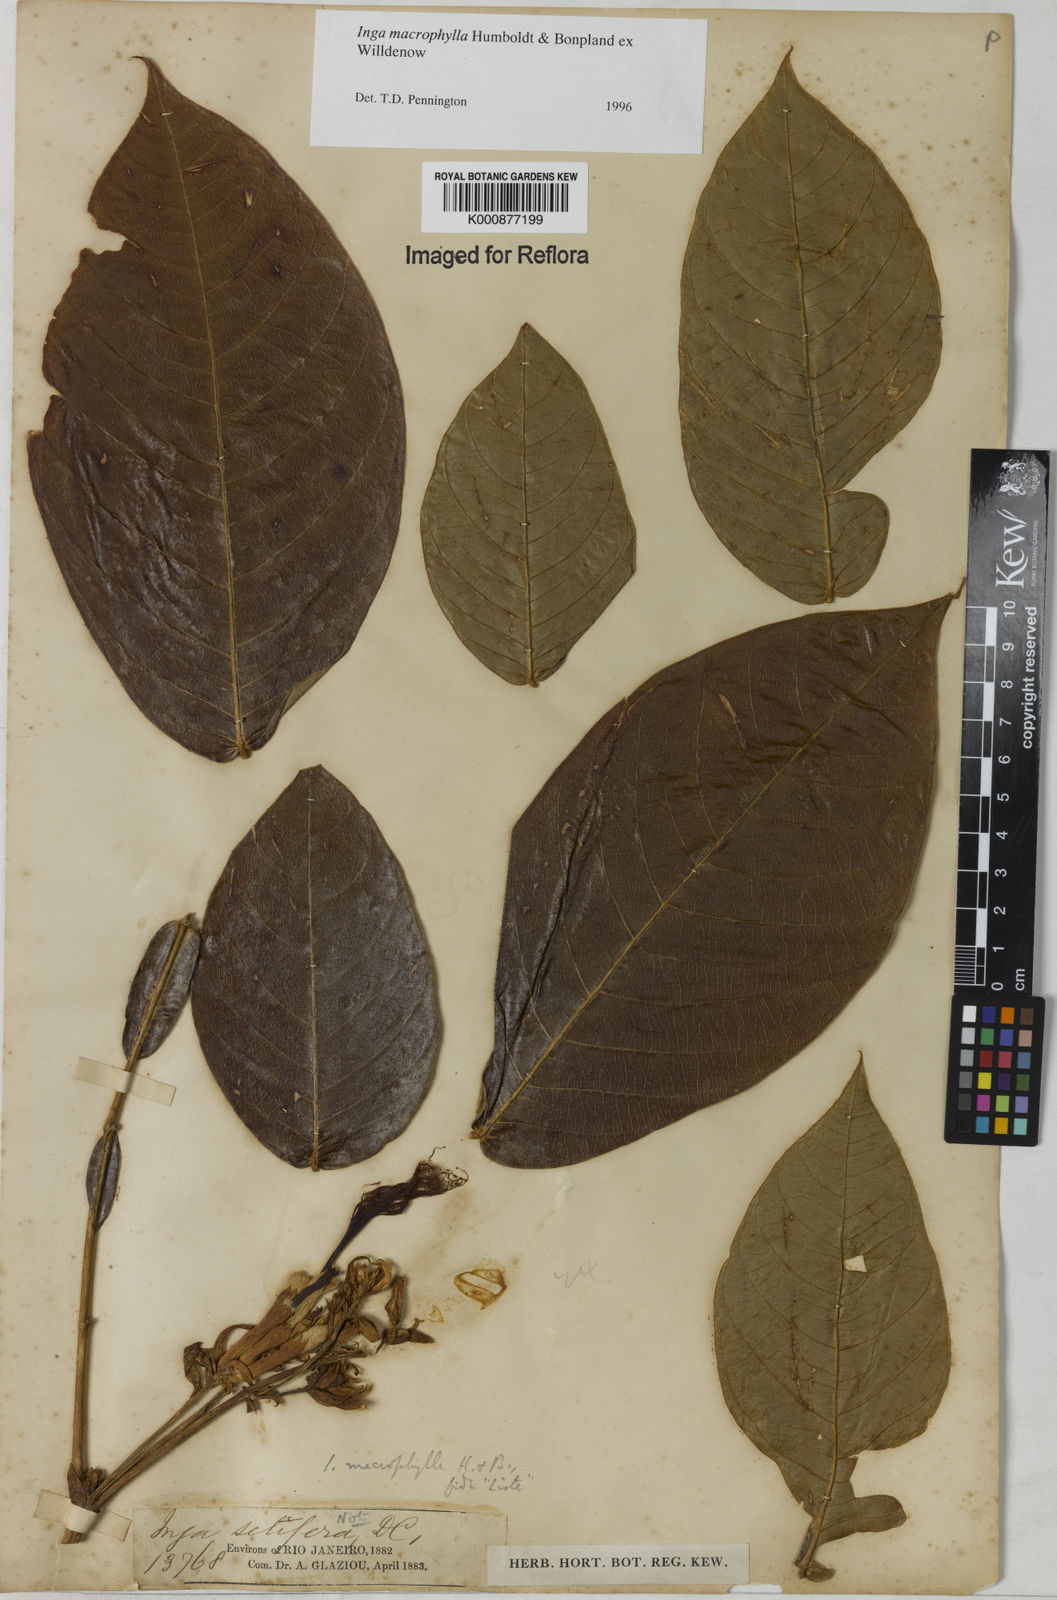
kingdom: Plantae
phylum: Tracheophyta
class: Magnoliopsida
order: Fabales
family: Fabaceae
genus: Inga
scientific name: Inga macrophylla
